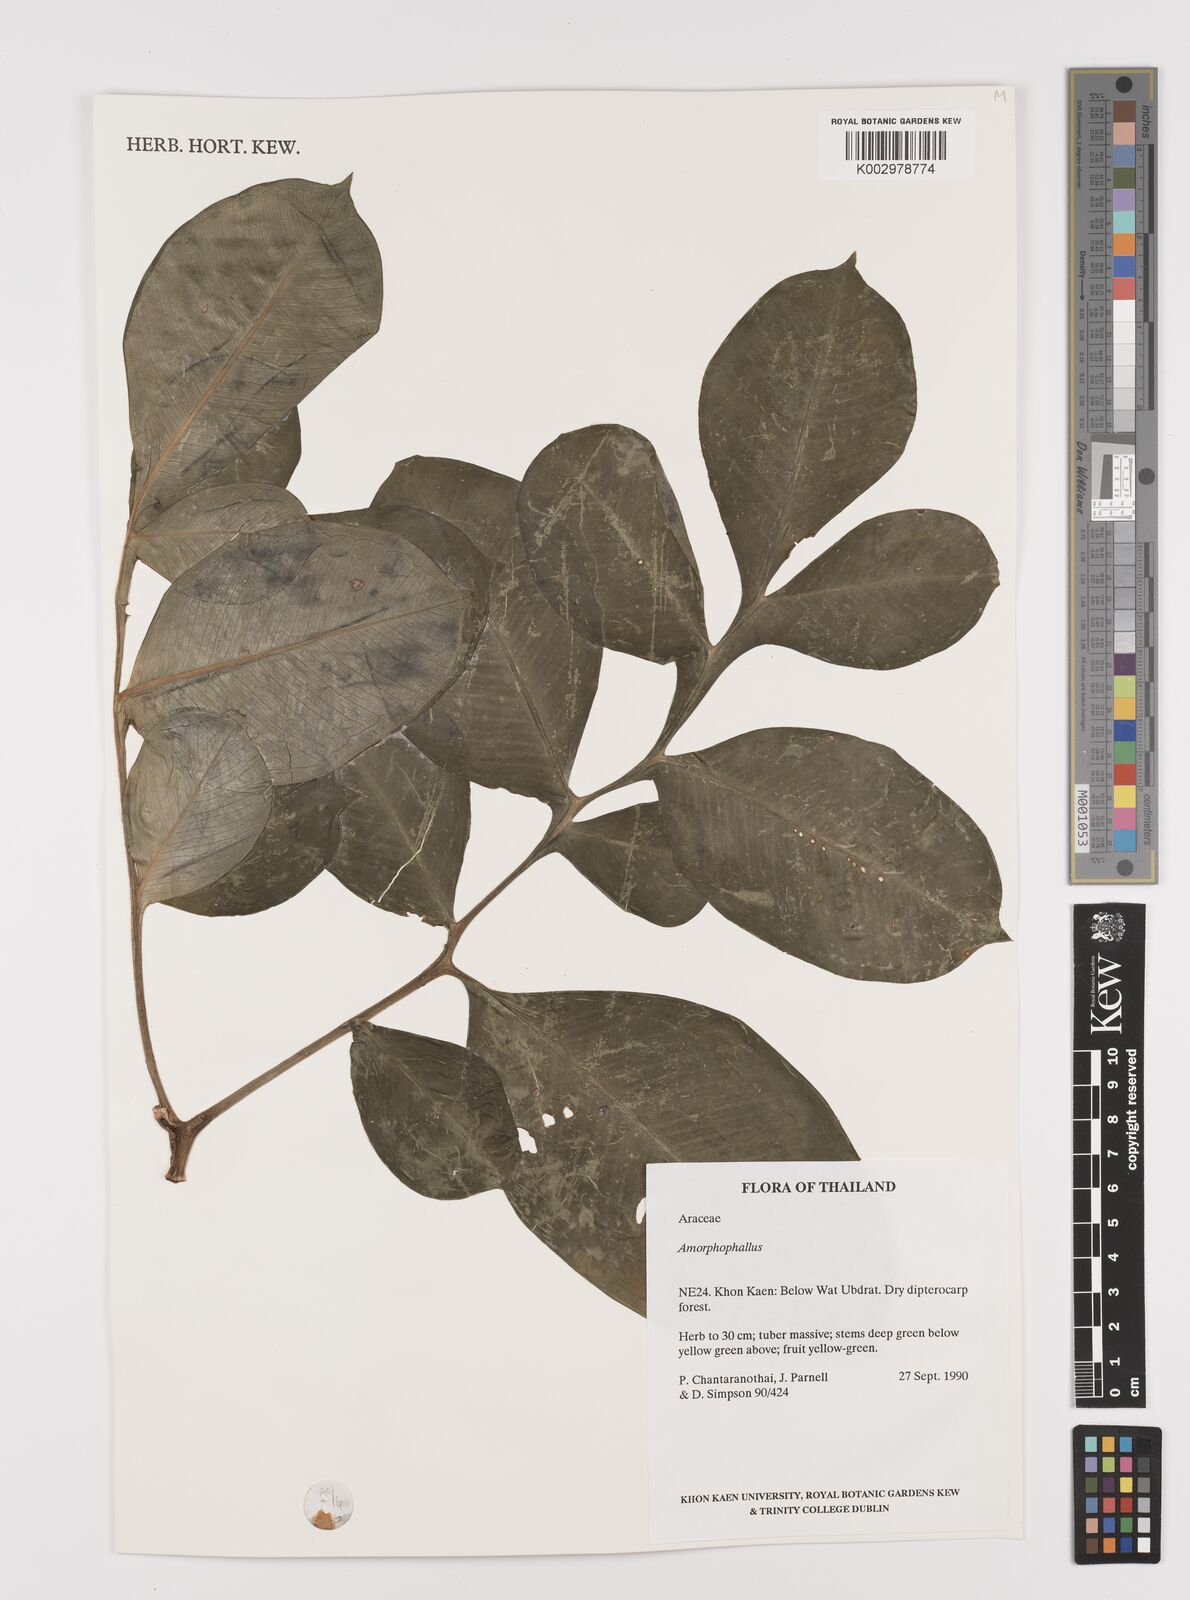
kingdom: Plantae
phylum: Tracheophyta
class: Liliopsida
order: Alismatales
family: Araceae
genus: Amorphophallus
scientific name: Amorphophallus
